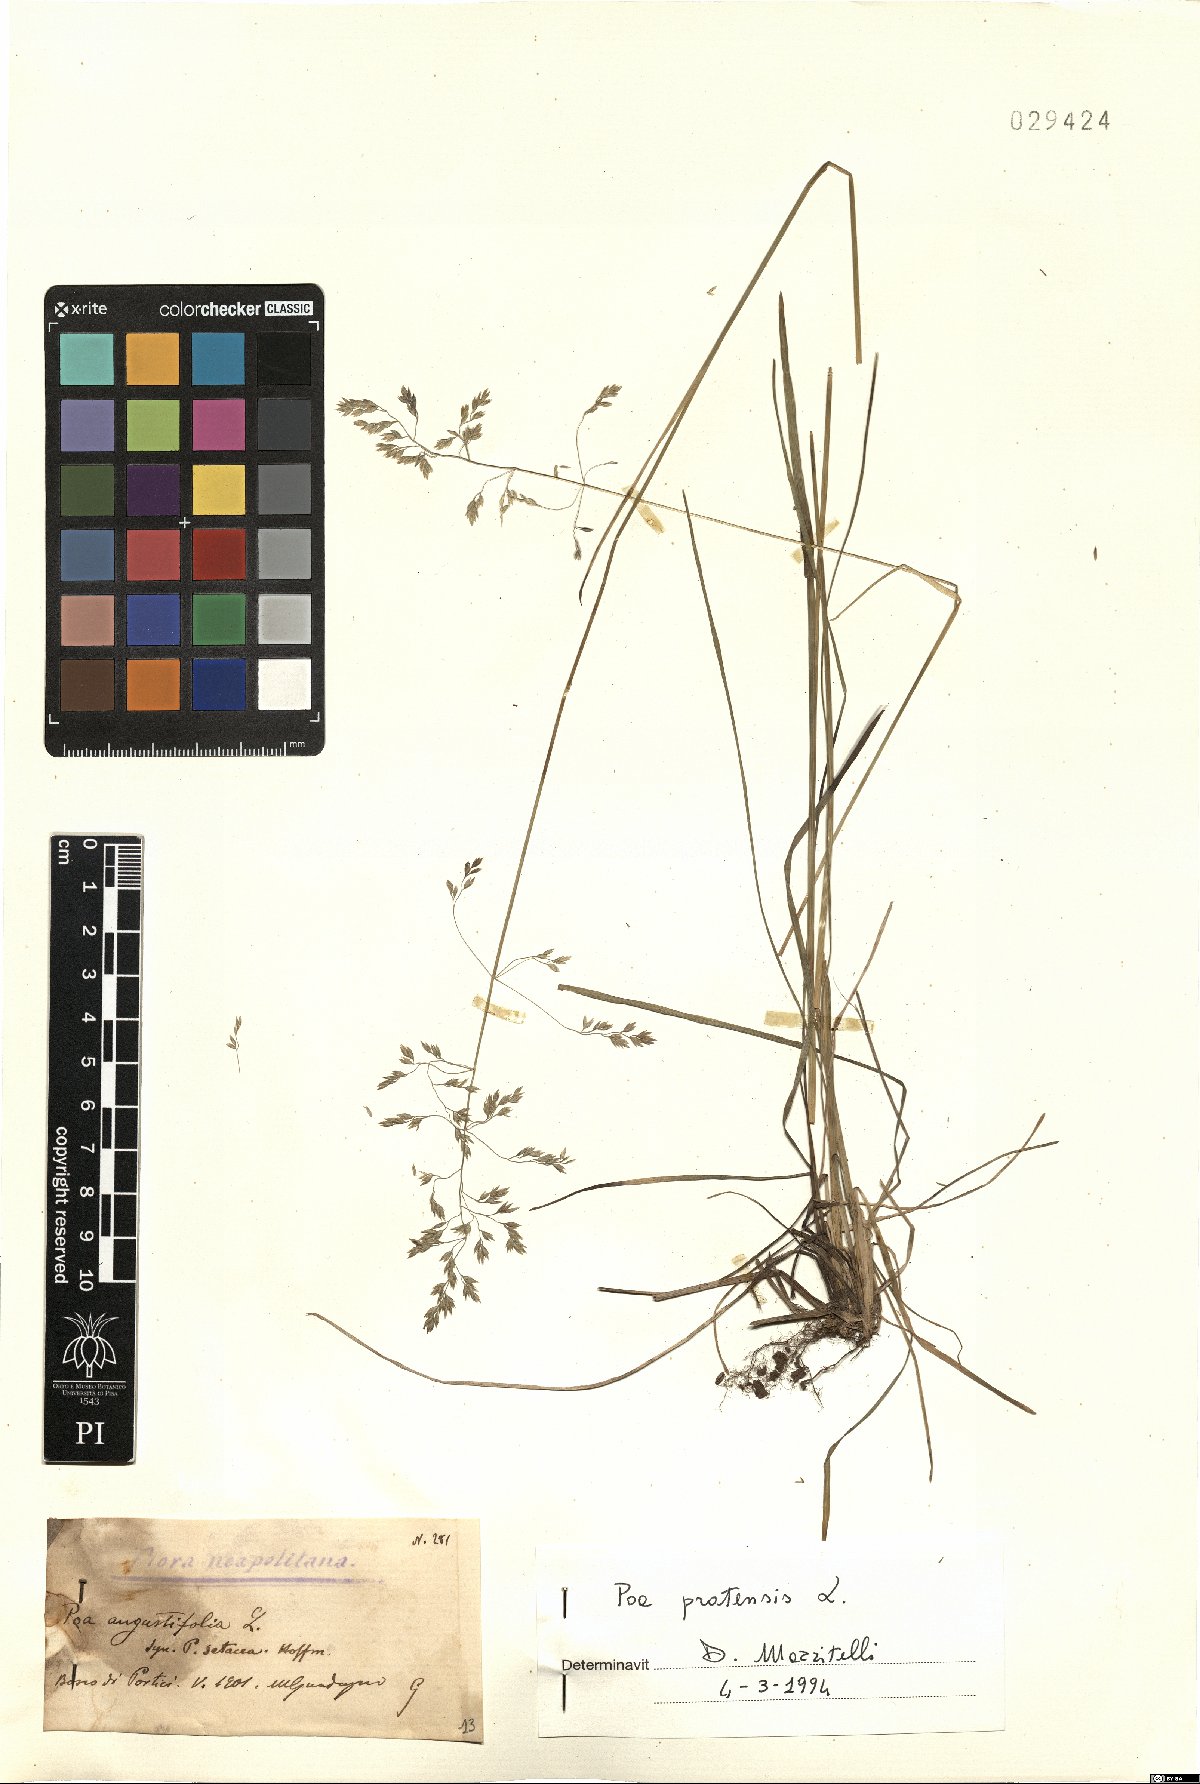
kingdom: Plantae
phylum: Tracheophyta
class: Liliopsida
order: Poales
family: Poaceae
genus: Poa
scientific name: Poa pratensis
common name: Kentucky bluegrass
